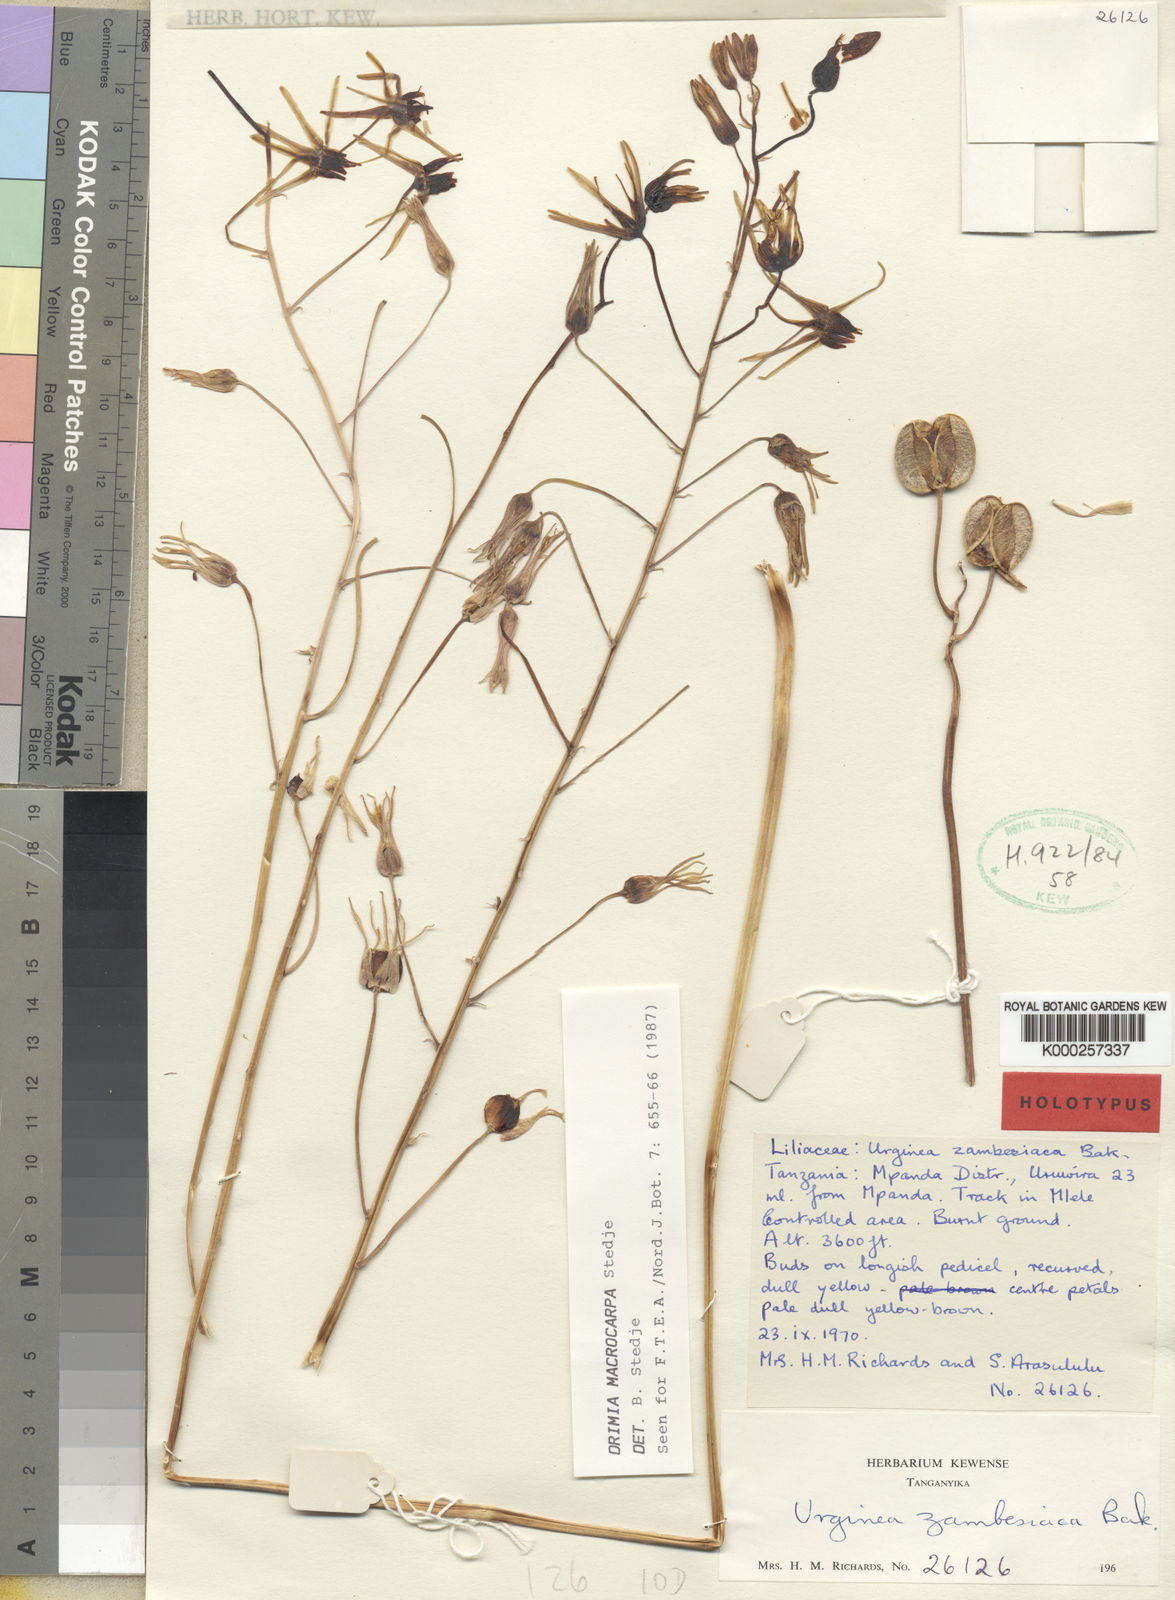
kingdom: Plantae
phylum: Tracheophyta
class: Liliopsida
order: Asparagales
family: Asparagaceae
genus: Drimia
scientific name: Drimia basutica
